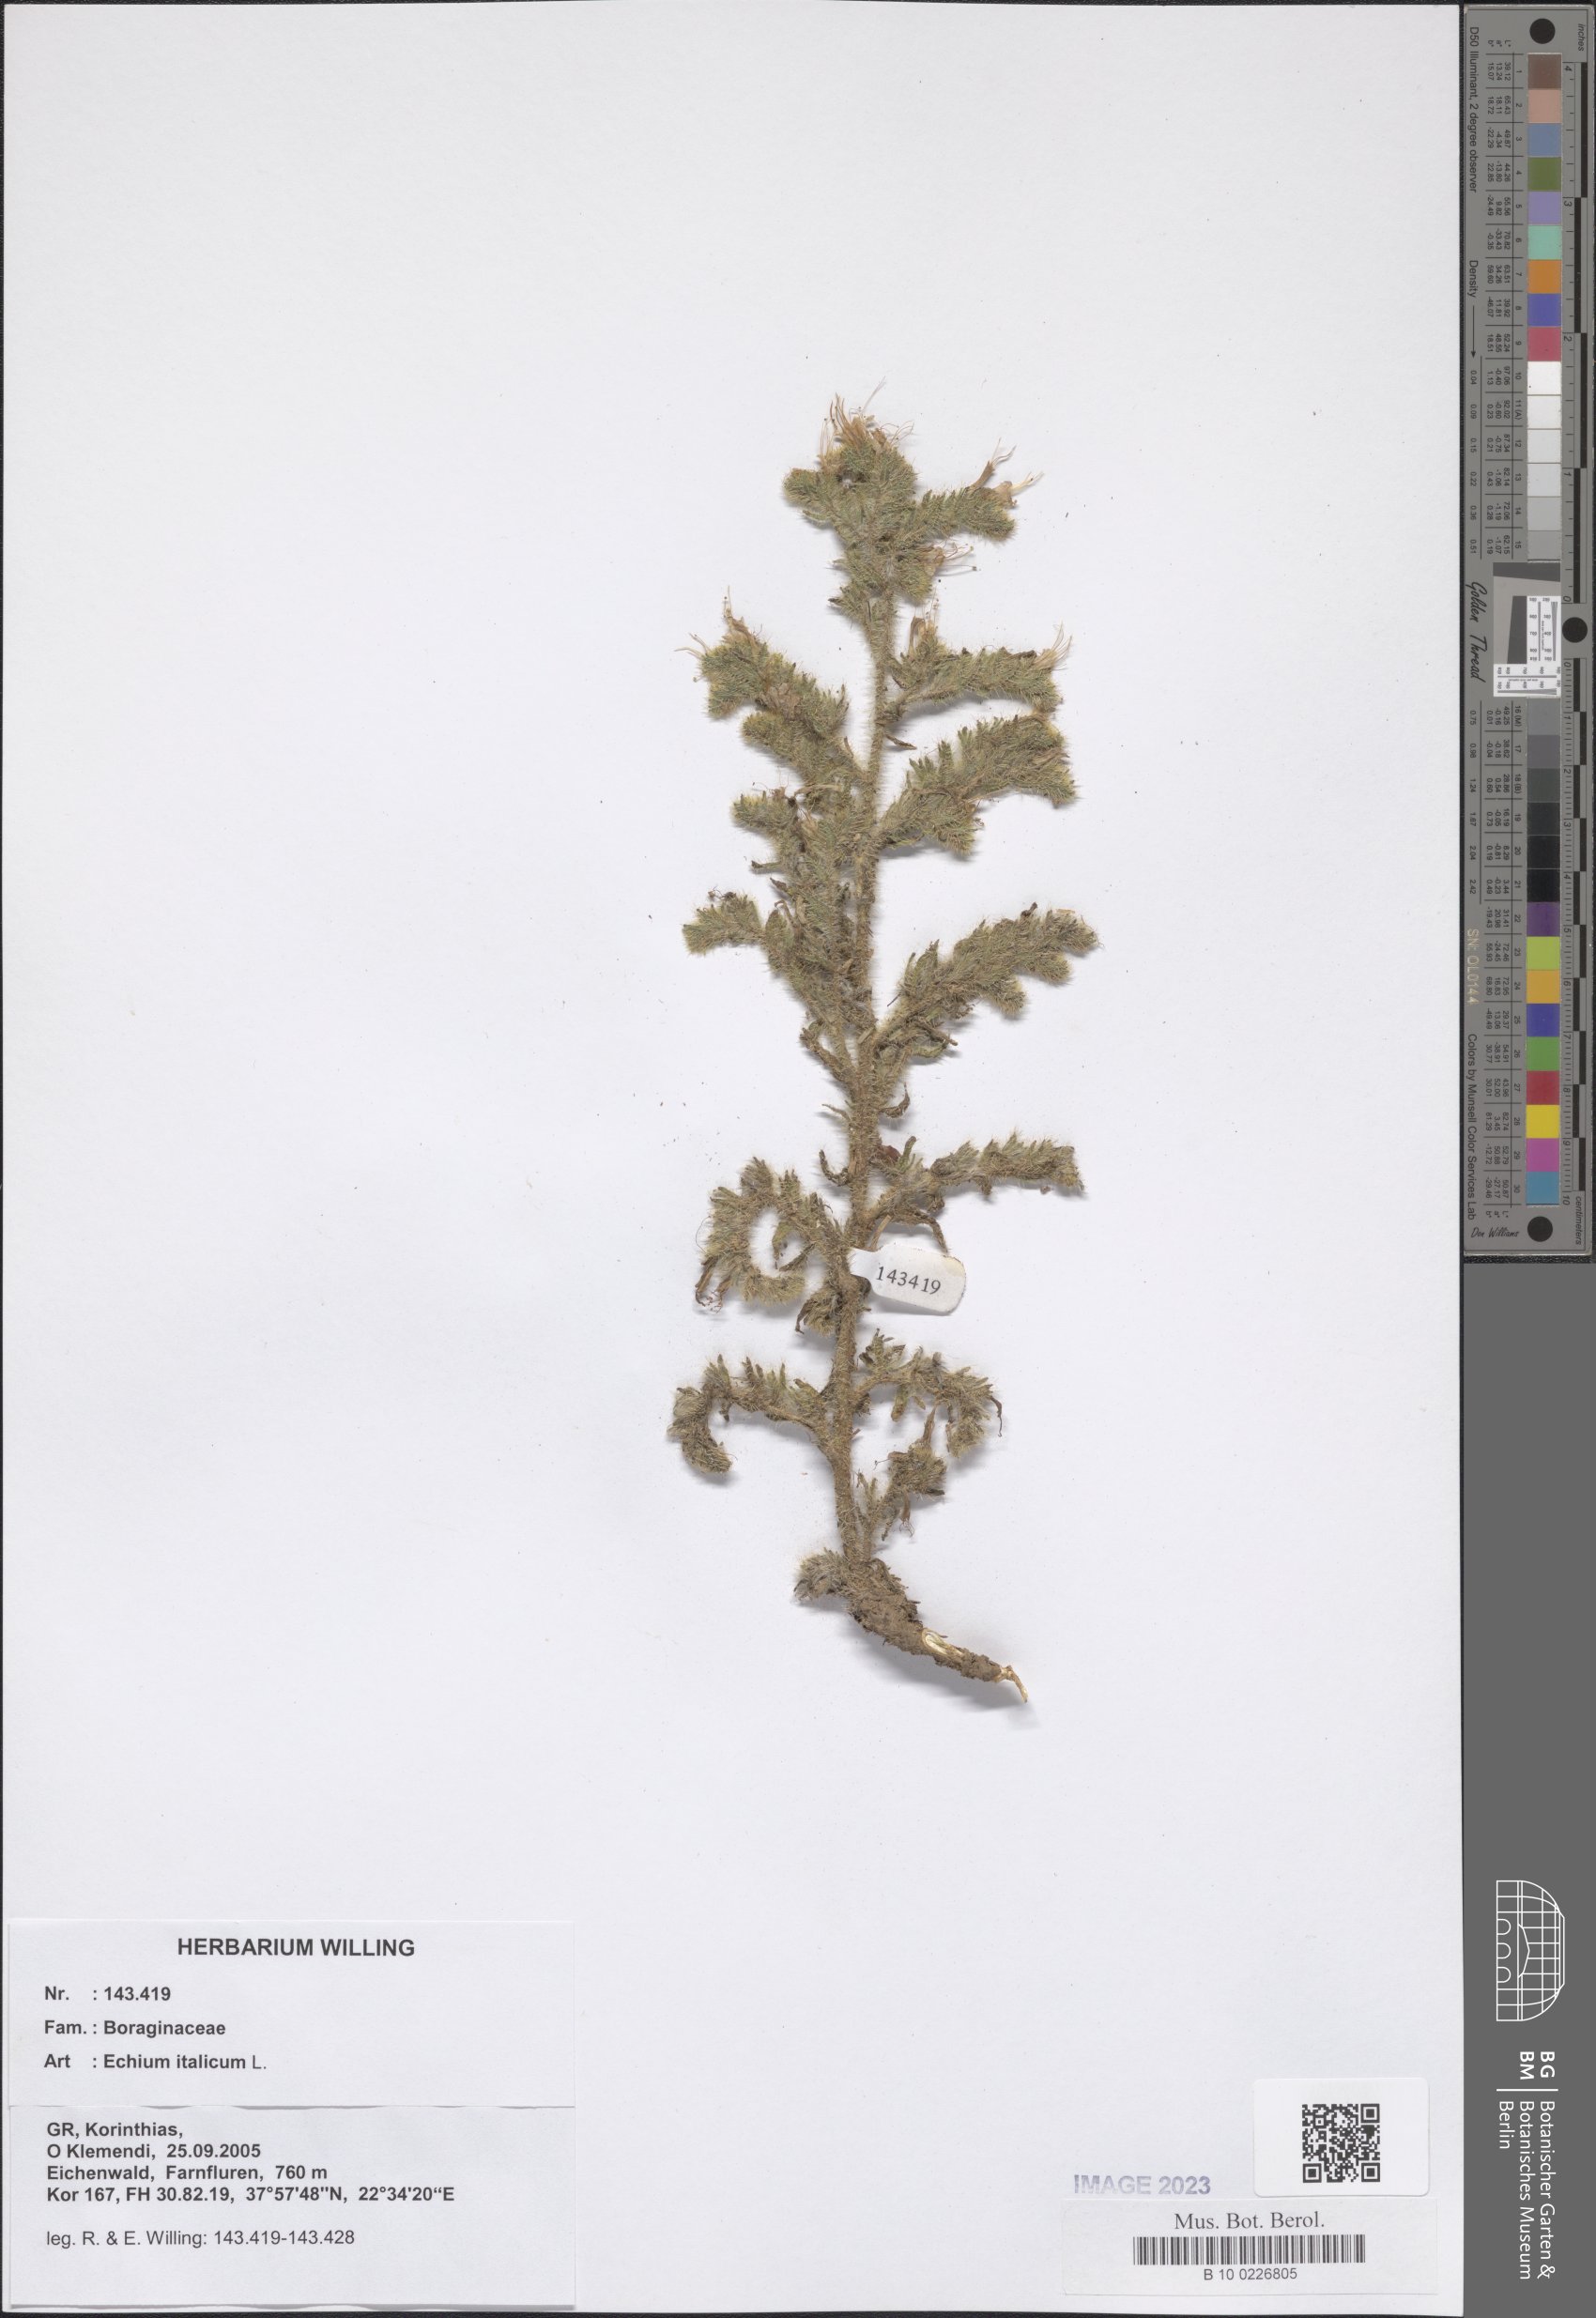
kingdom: Plantae
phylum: Tracheophyta
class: Magnoliopsida
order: Boraginales
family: Boraginaceae
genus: Echium
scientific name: Echium italicum
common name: Italian viper's bugloss
